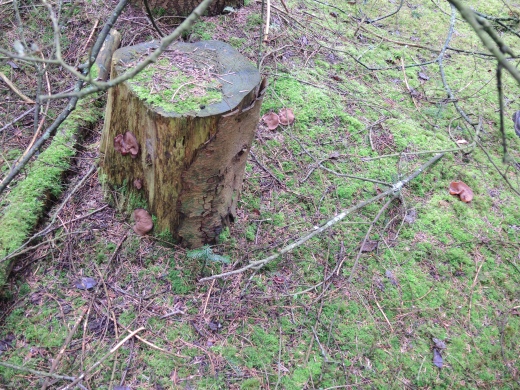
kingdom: Fungi
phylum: Ascomycota
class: Pezizomycetes
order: Pezizales
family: Discinaceae
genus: Discina
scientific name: Discina ancilis
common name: udbredt stenmorkel
